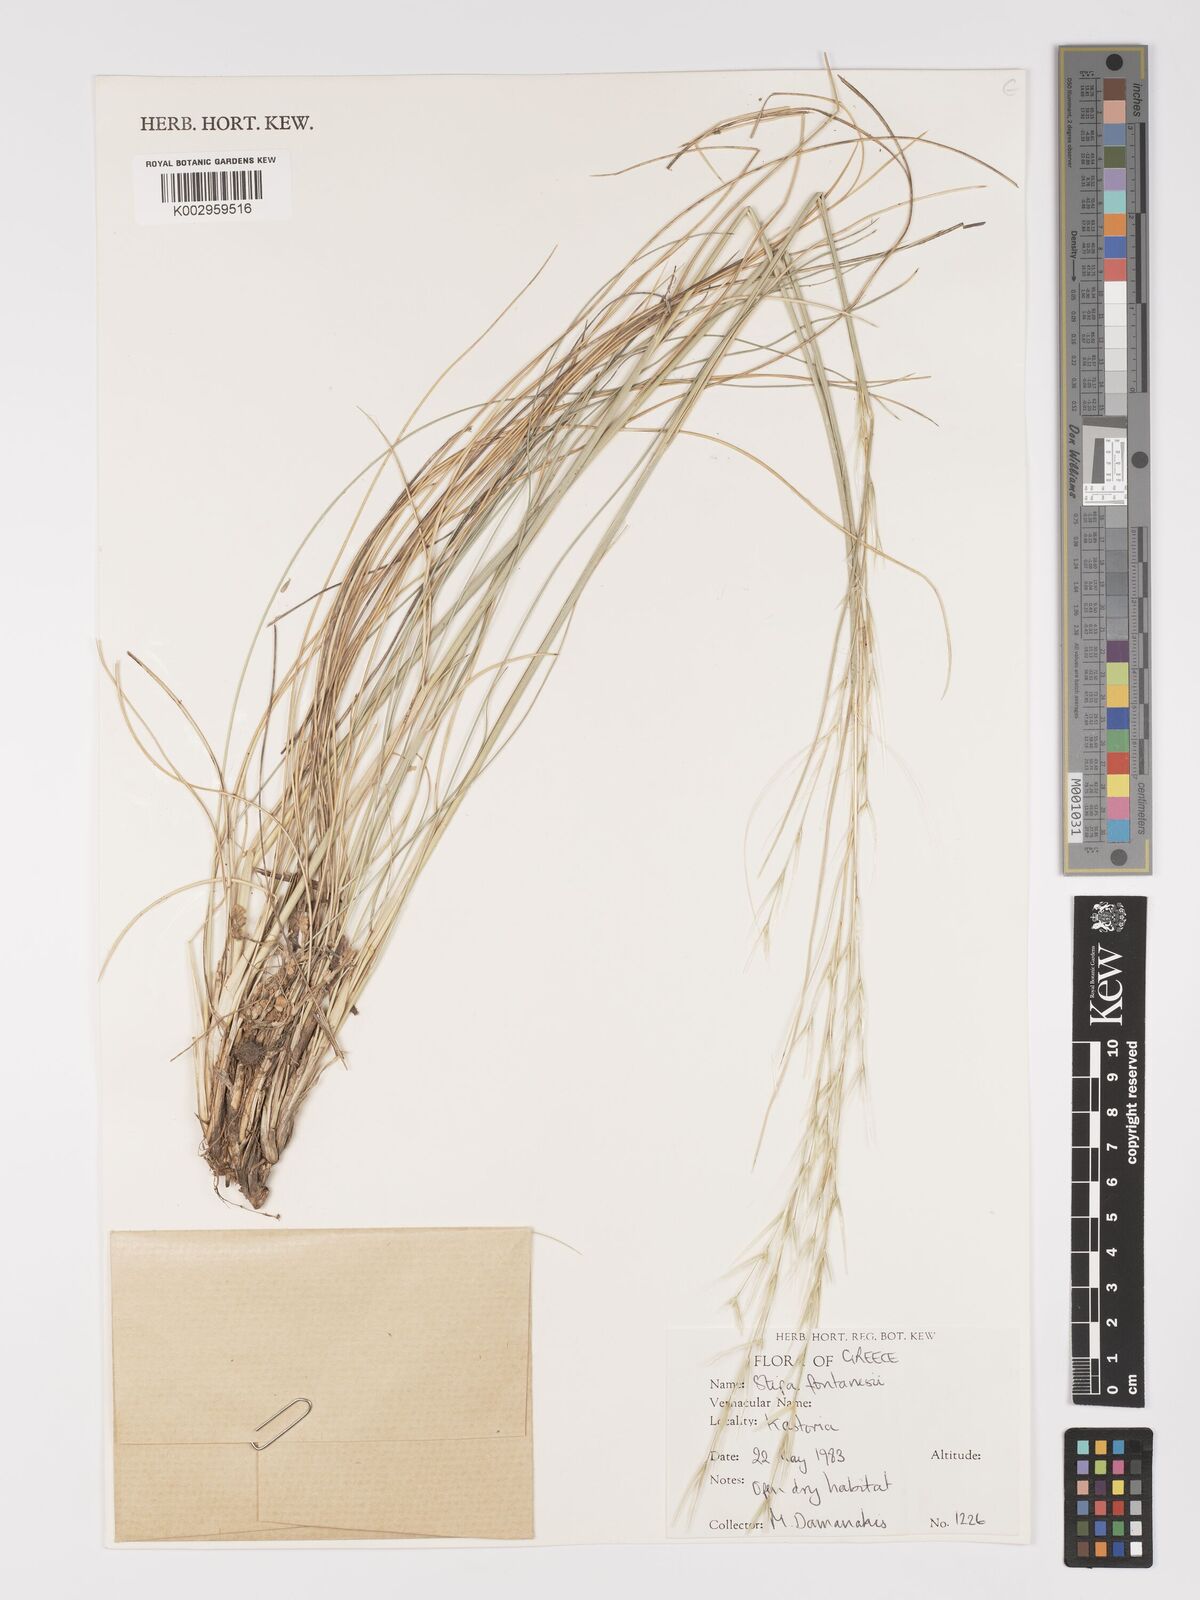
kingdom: Plantae
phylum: Tracheophyta
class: Liliopsida
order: Poales
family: Poaceae
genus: Stipa
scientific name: Stipa holosericea
